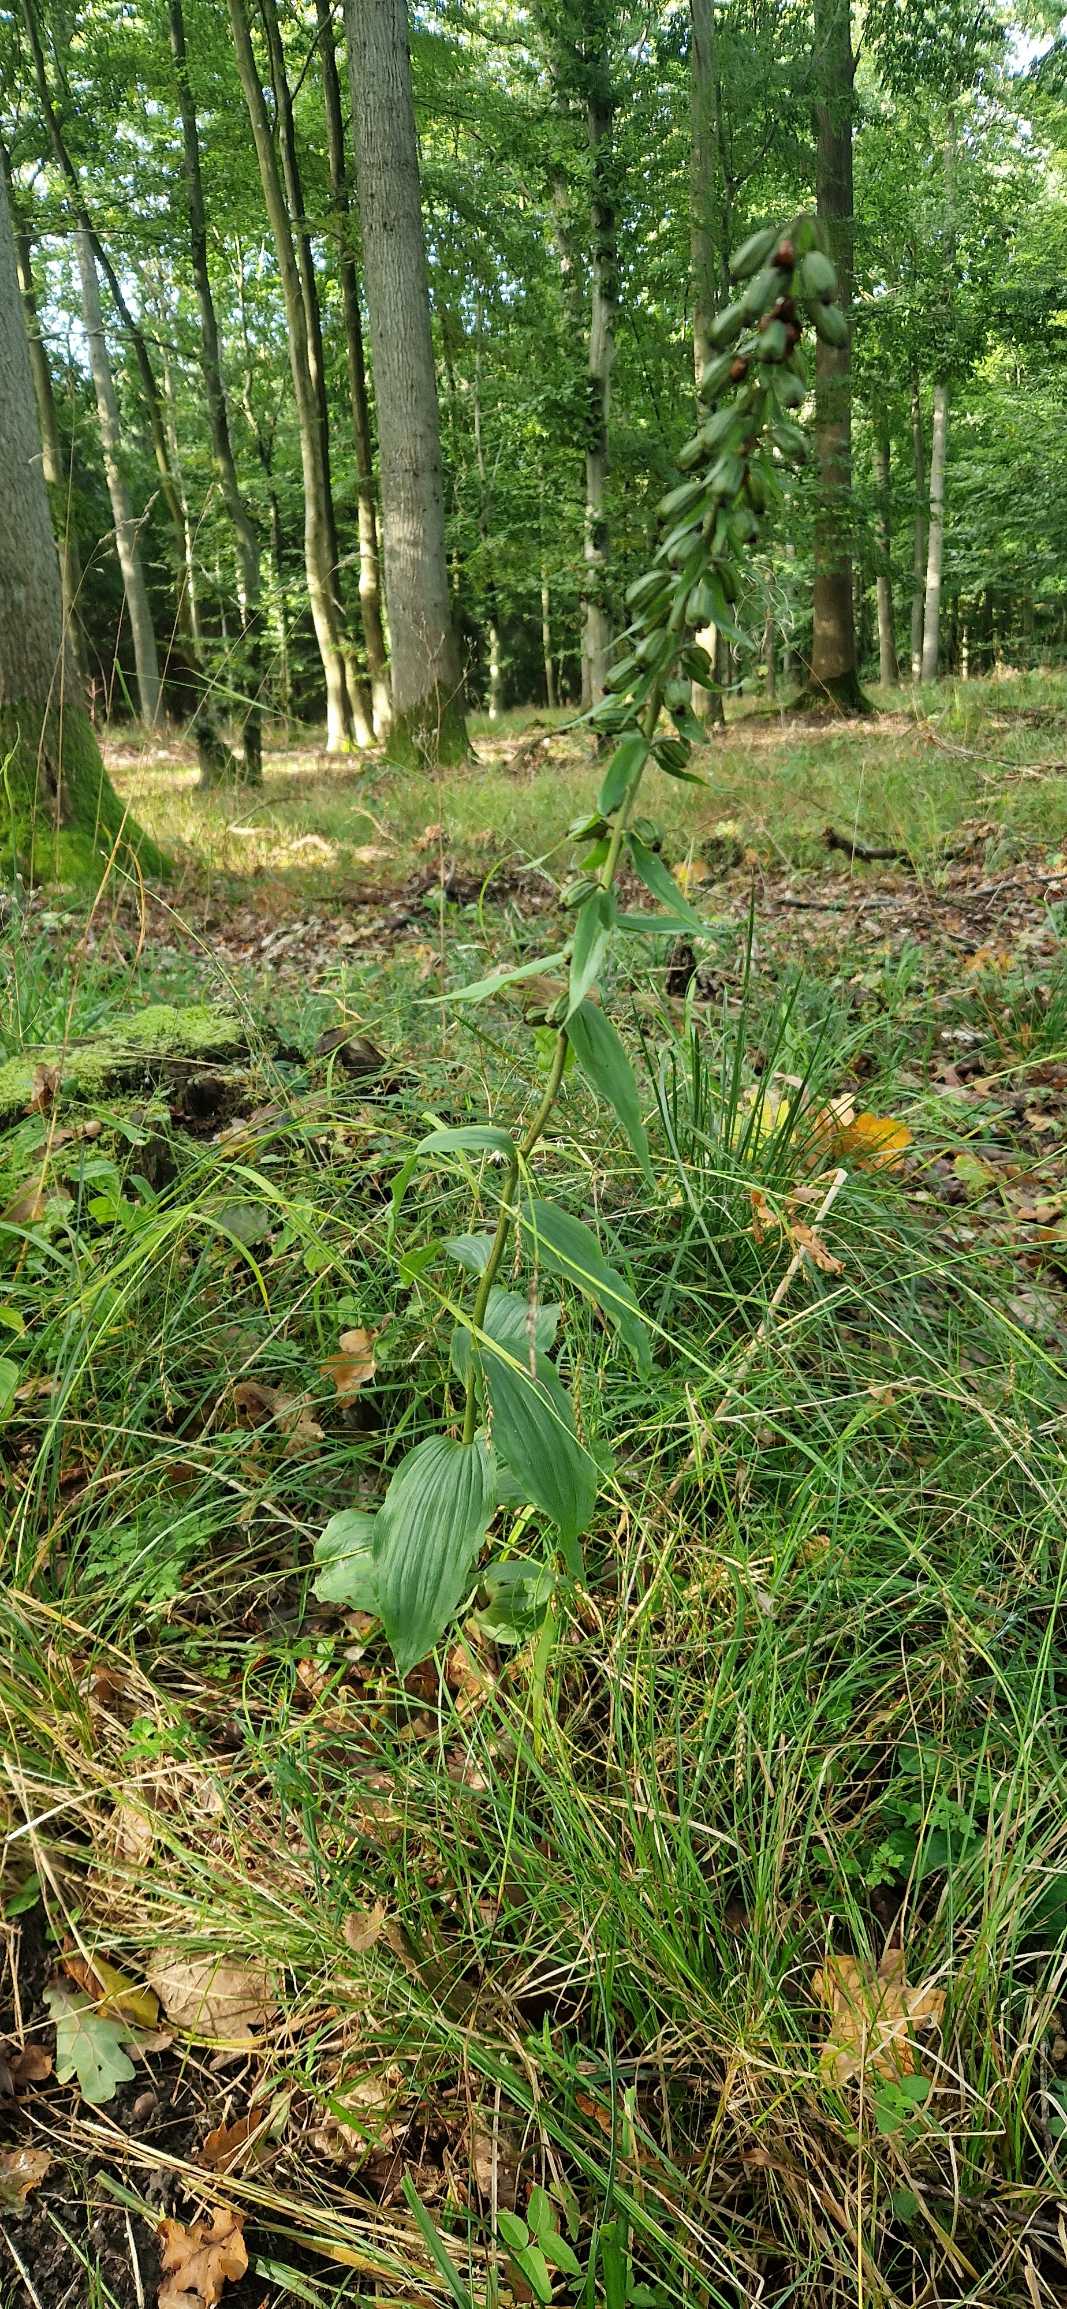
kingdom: Plantae
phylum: Tracheophyta
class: Liliopsida
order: Asparagales
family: Orchidaceae
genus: Epipactis
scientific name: Epipactis helleborine
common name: Skov-hullæbe
